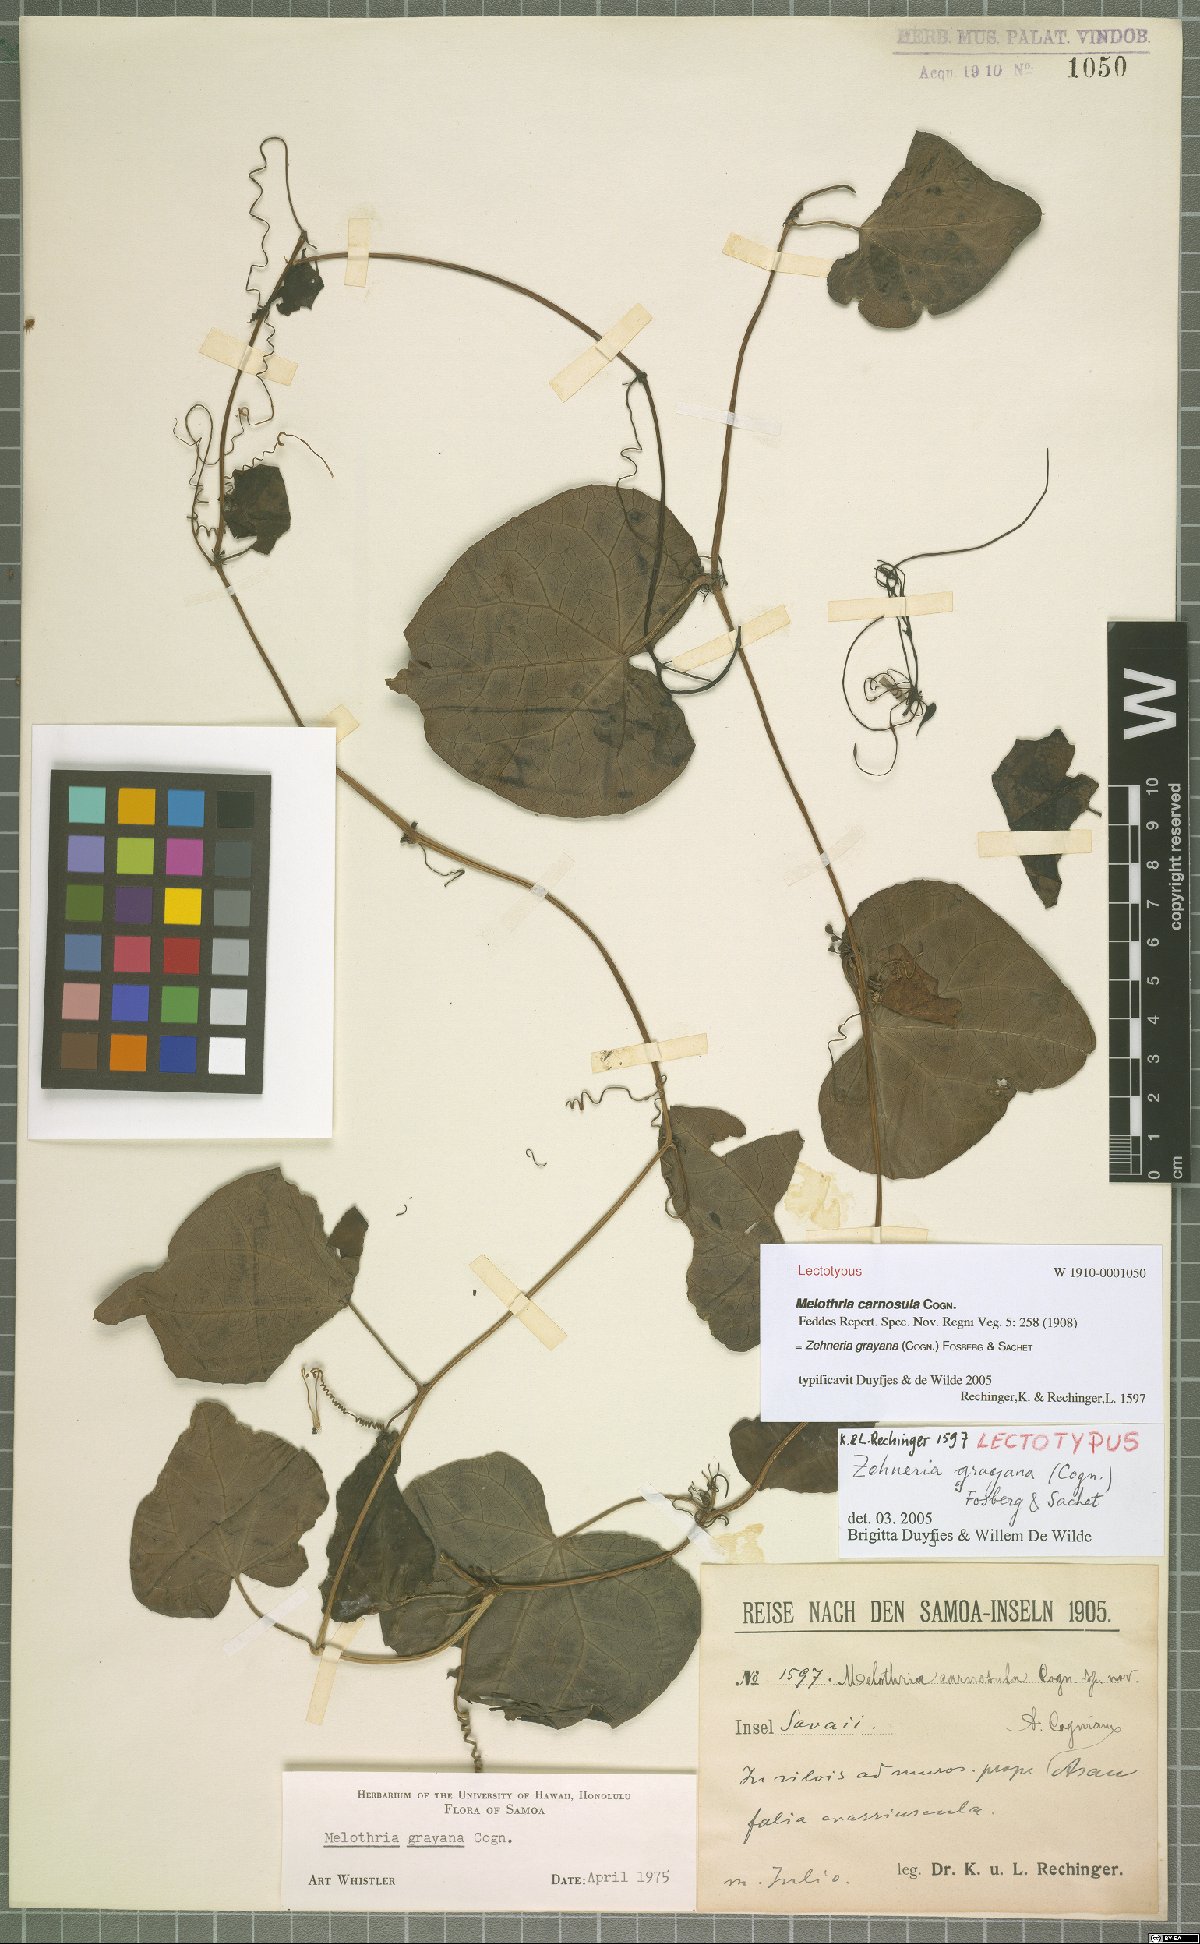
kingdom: Plantae
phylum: Tracheophyta
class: Magnoliopsida
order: Cucurbitales
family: Cucurbitaceae
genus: Zehneria
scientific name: Zehneria mucronata
